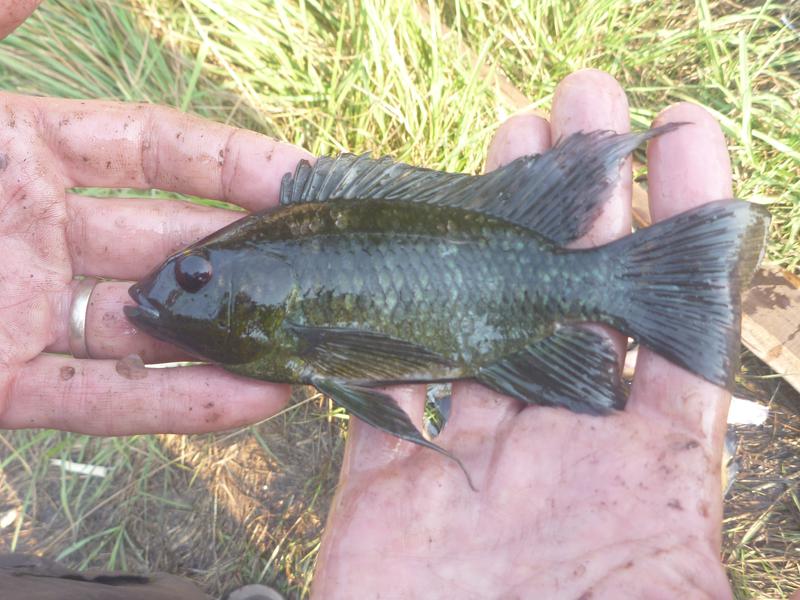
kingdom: Animalia
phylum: Chordata
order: Perciformes
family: Cichlidae
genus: Oreochromis
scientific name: Oreochromis leucostictus
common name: Blue spotted tilapia
